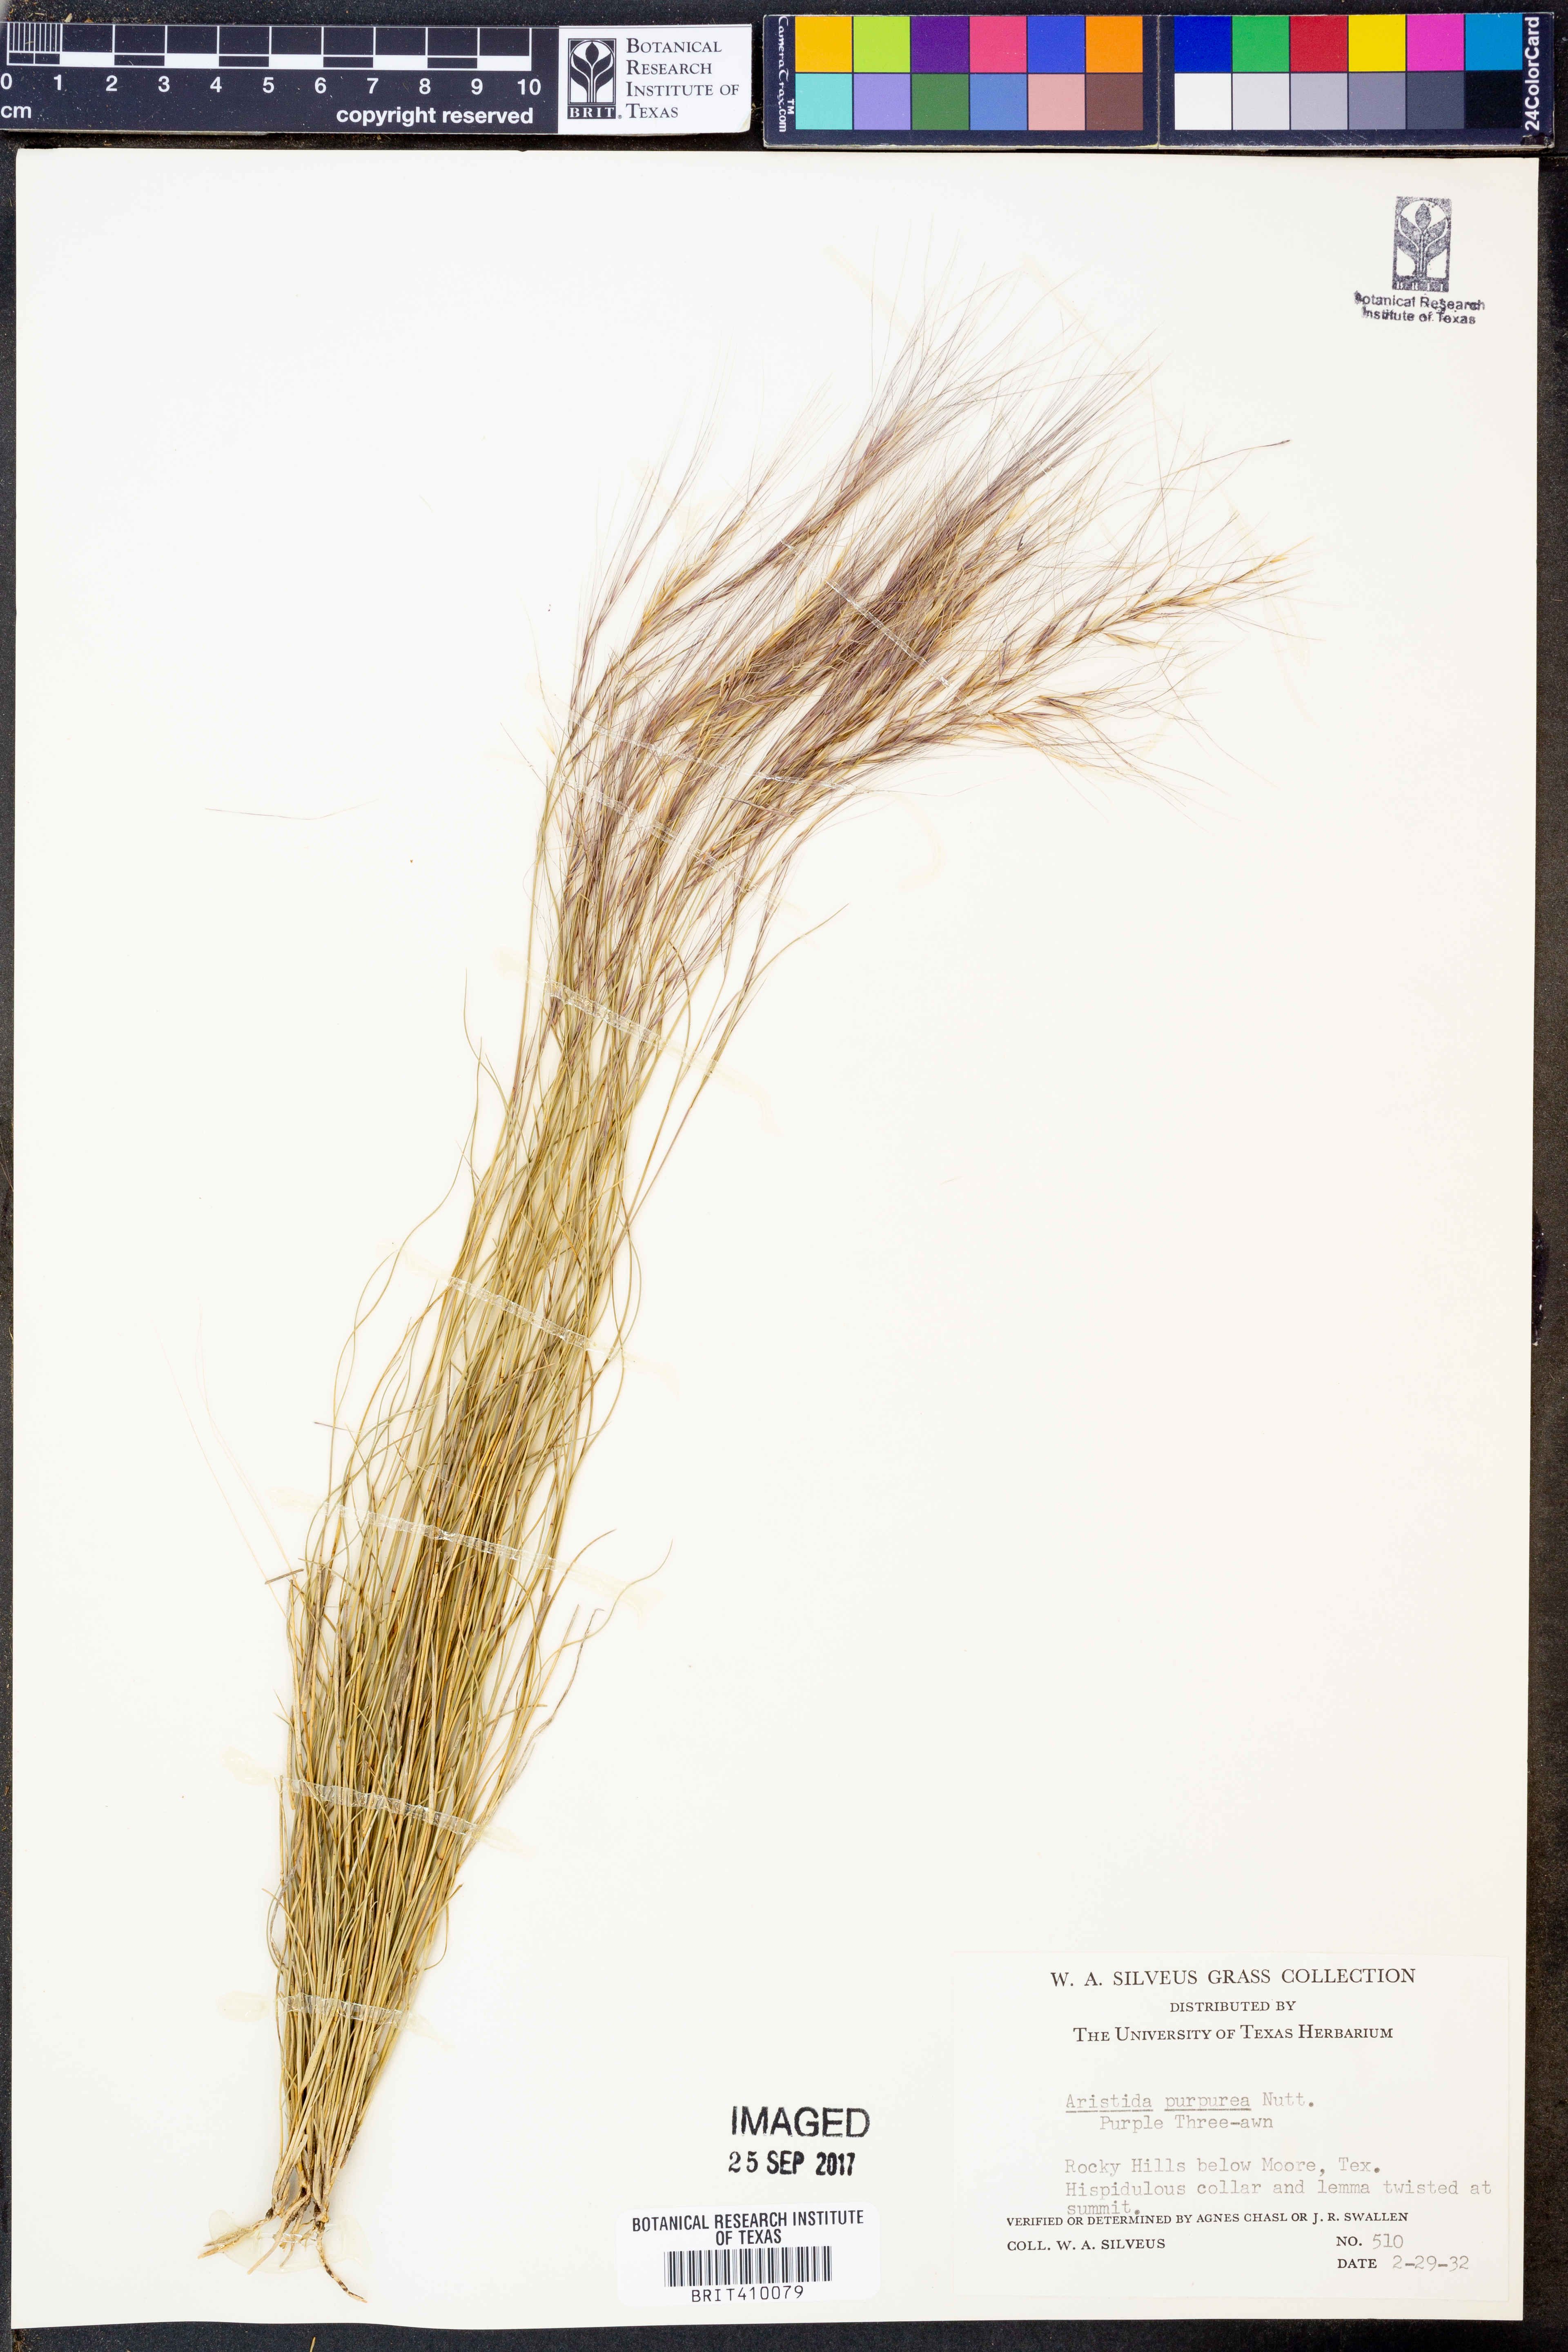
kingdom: Plantae
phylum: Tracheophyta
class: Liliopsida
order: Poales
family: Poaceae
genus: Aristida
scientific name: Aristida purpurea
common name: Purple threeawn
